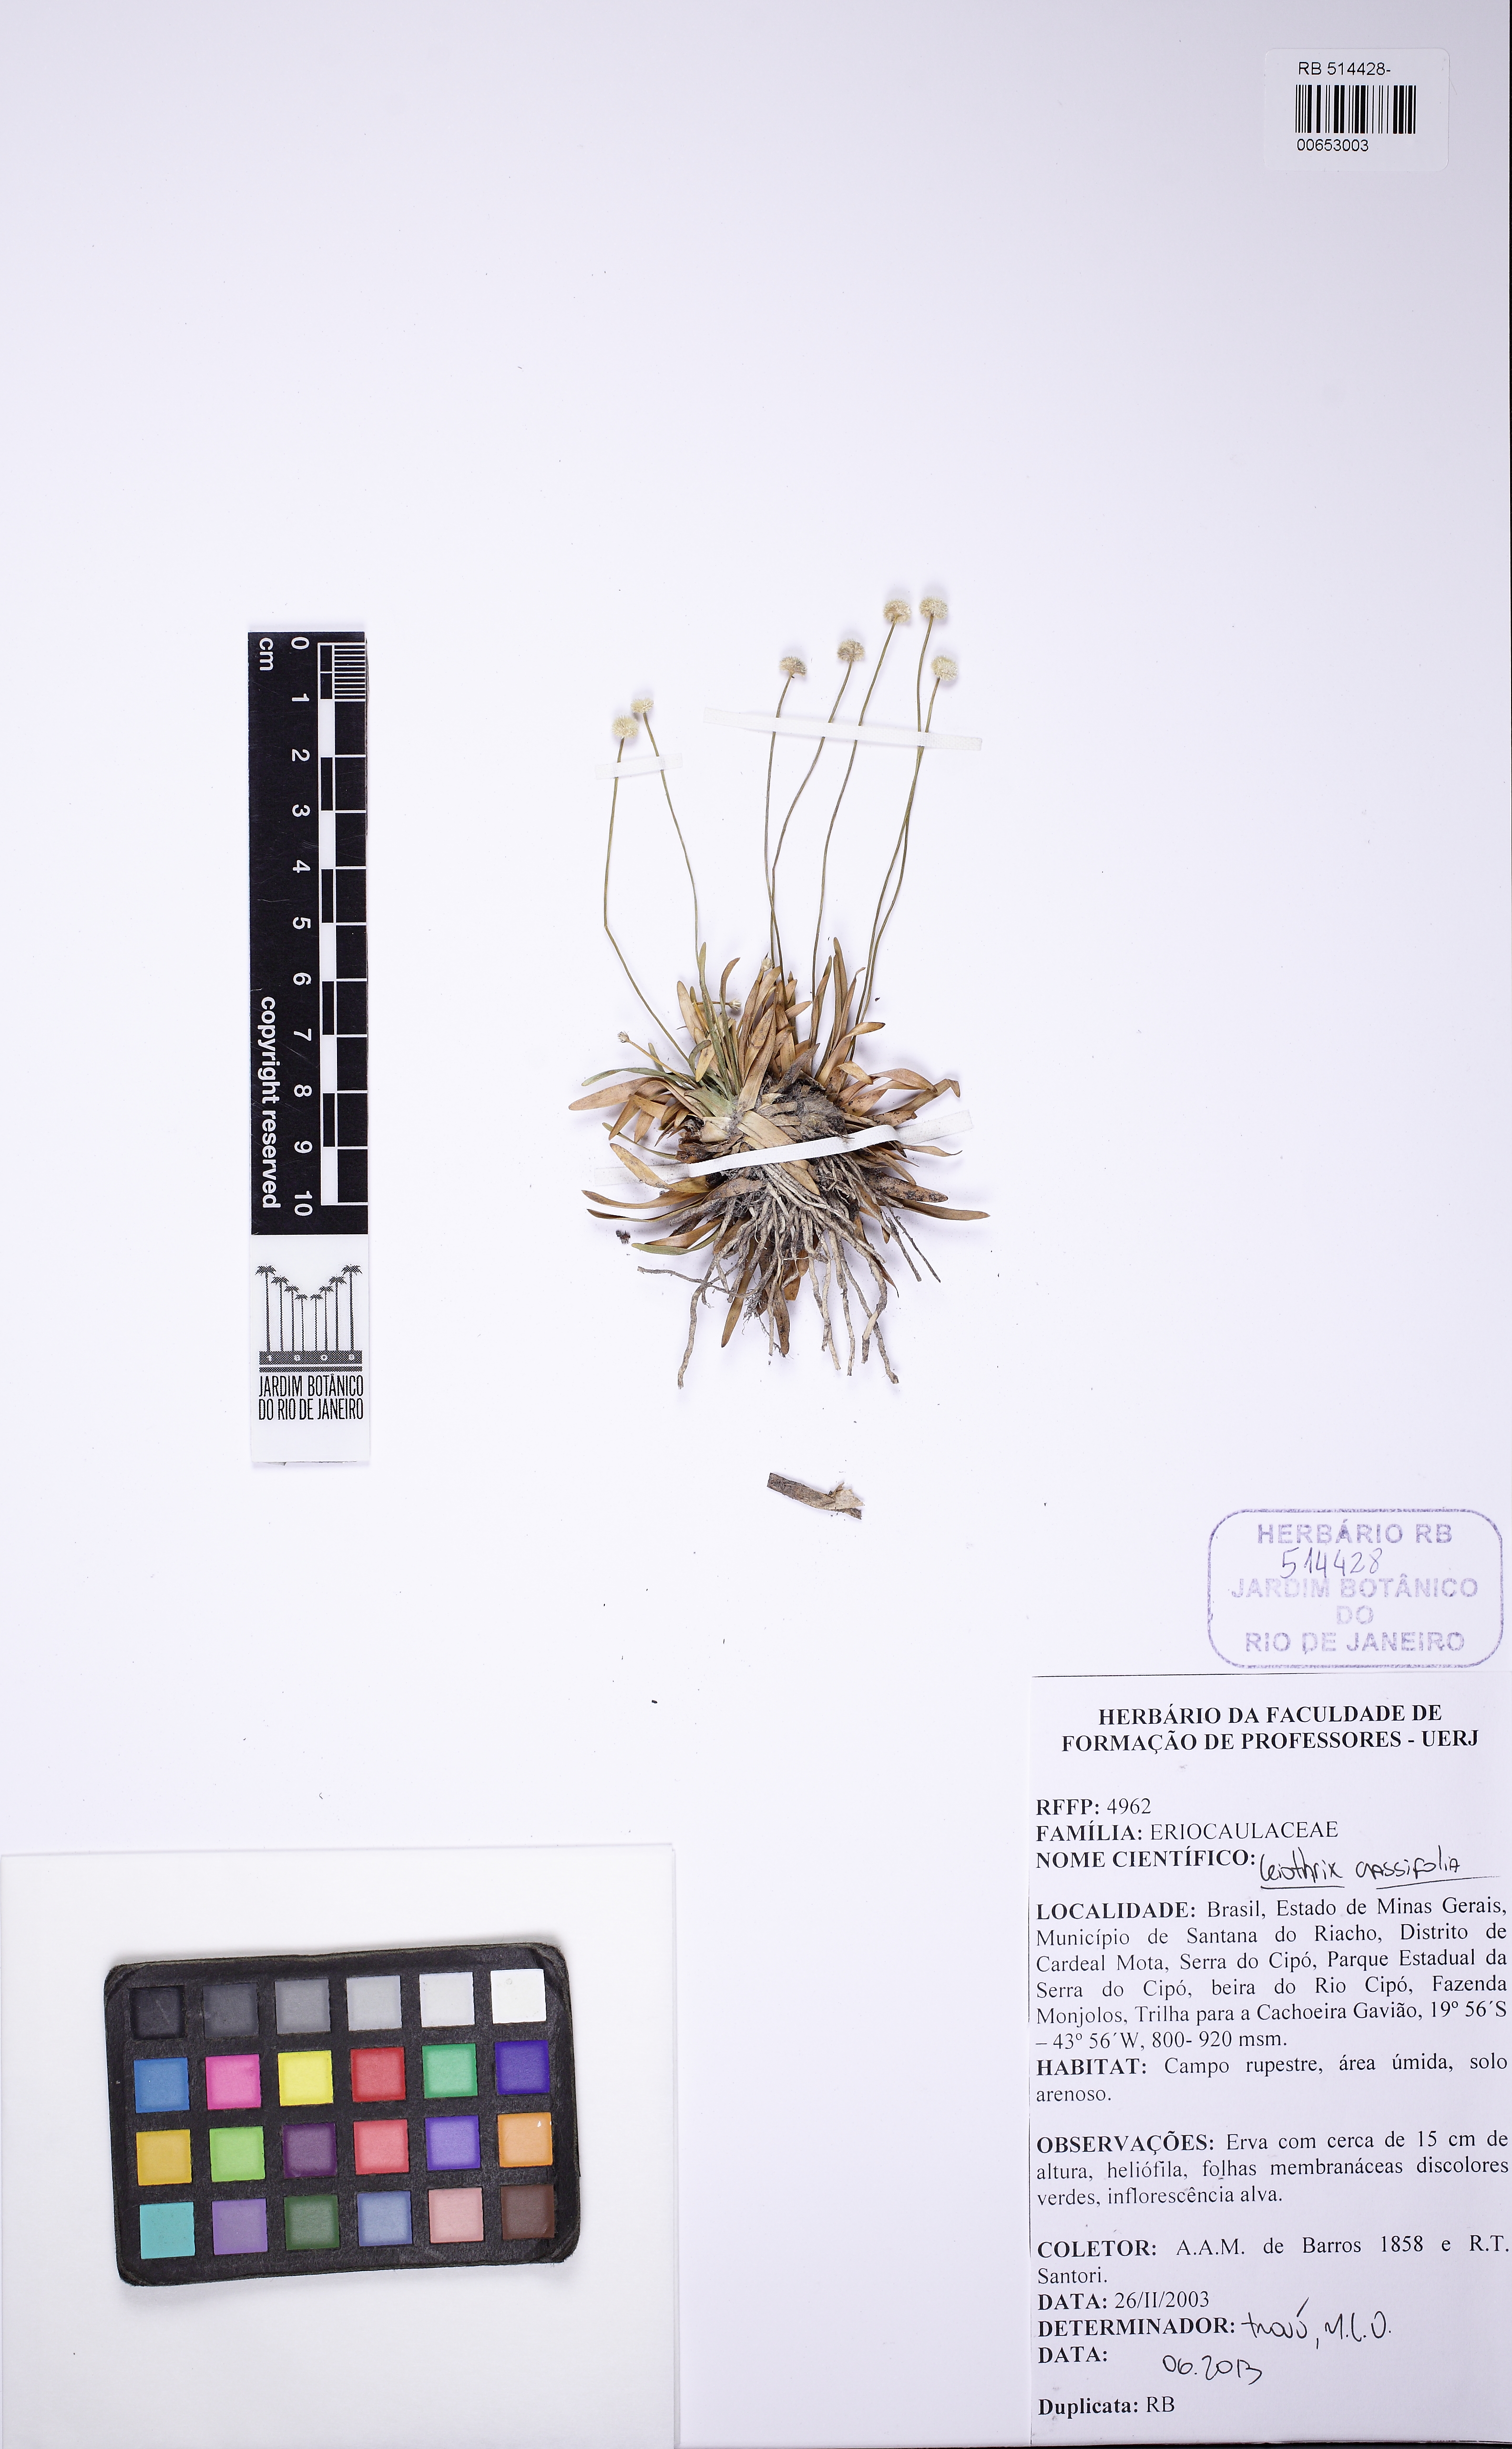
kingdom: Plantae
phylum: Tracheophyta
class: Liliopsida
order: Poales
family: Eriocaulaceae
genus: Leiothrix
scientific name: Leiothrix crassifolia
